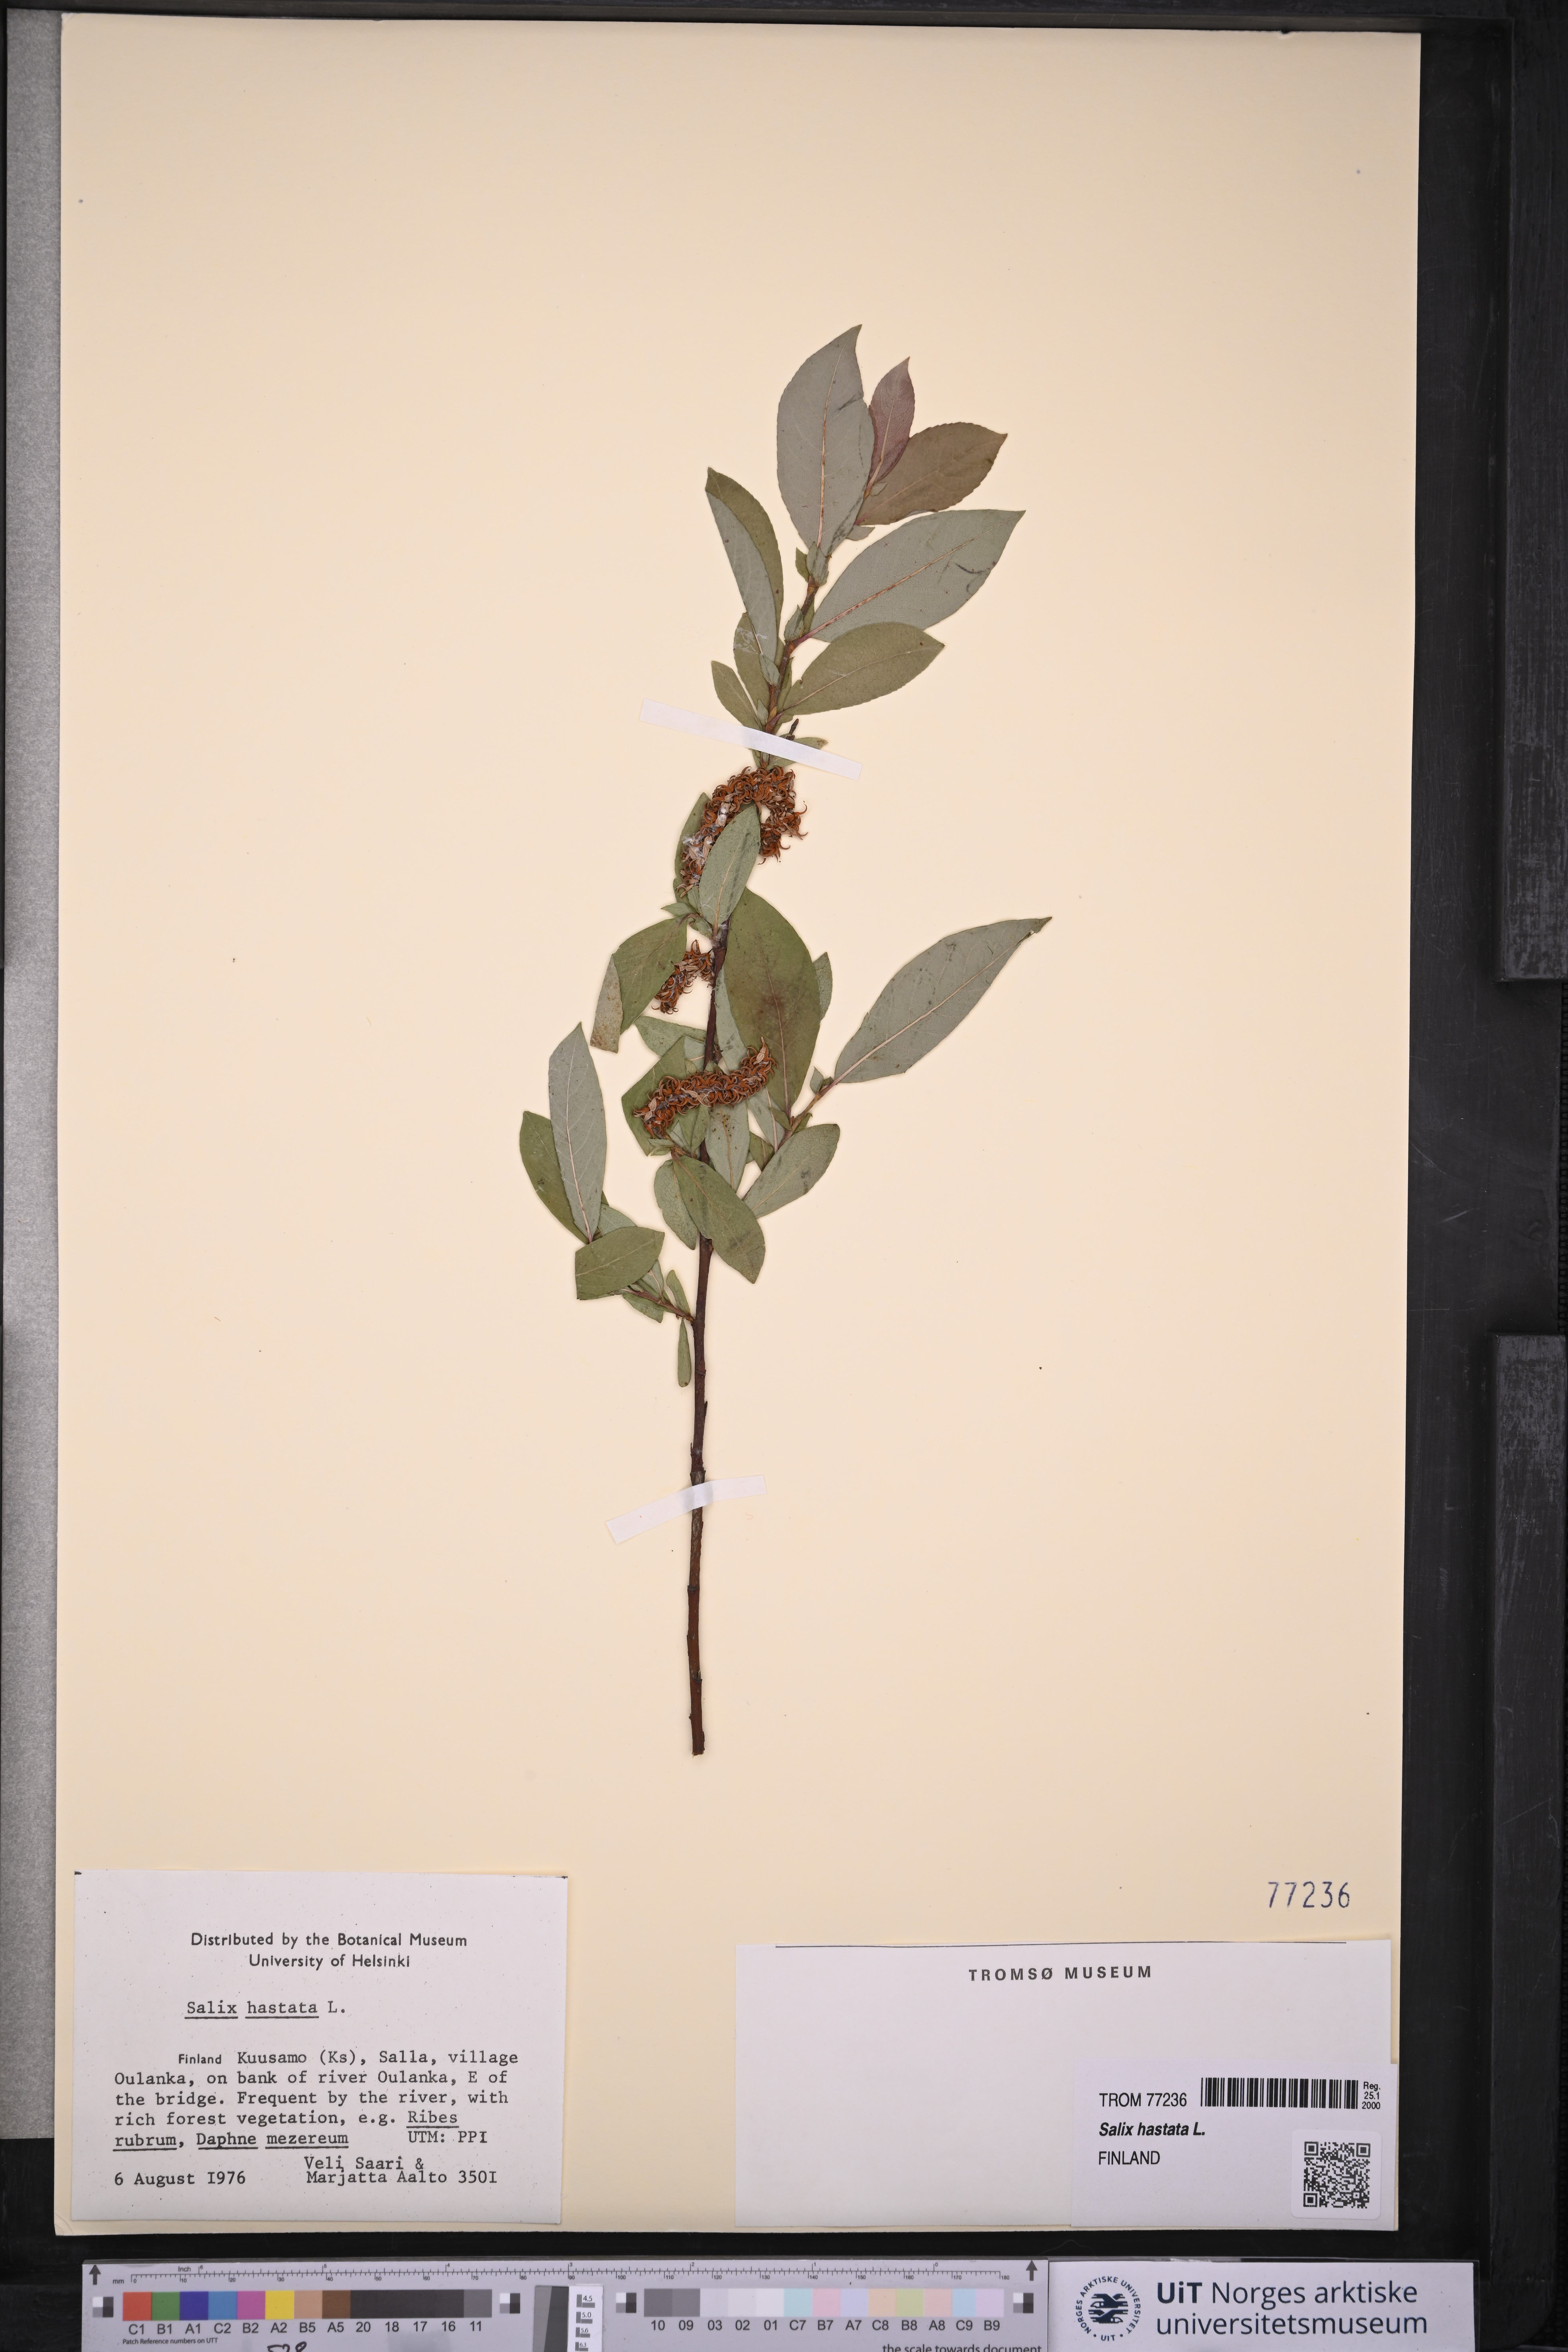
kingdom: Plantae
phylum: Tracheophyta
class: Magnoliopsida
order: Malpighiales
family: Salicaceae
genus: Salix
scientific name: Salix hastata
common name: Halberd willow
